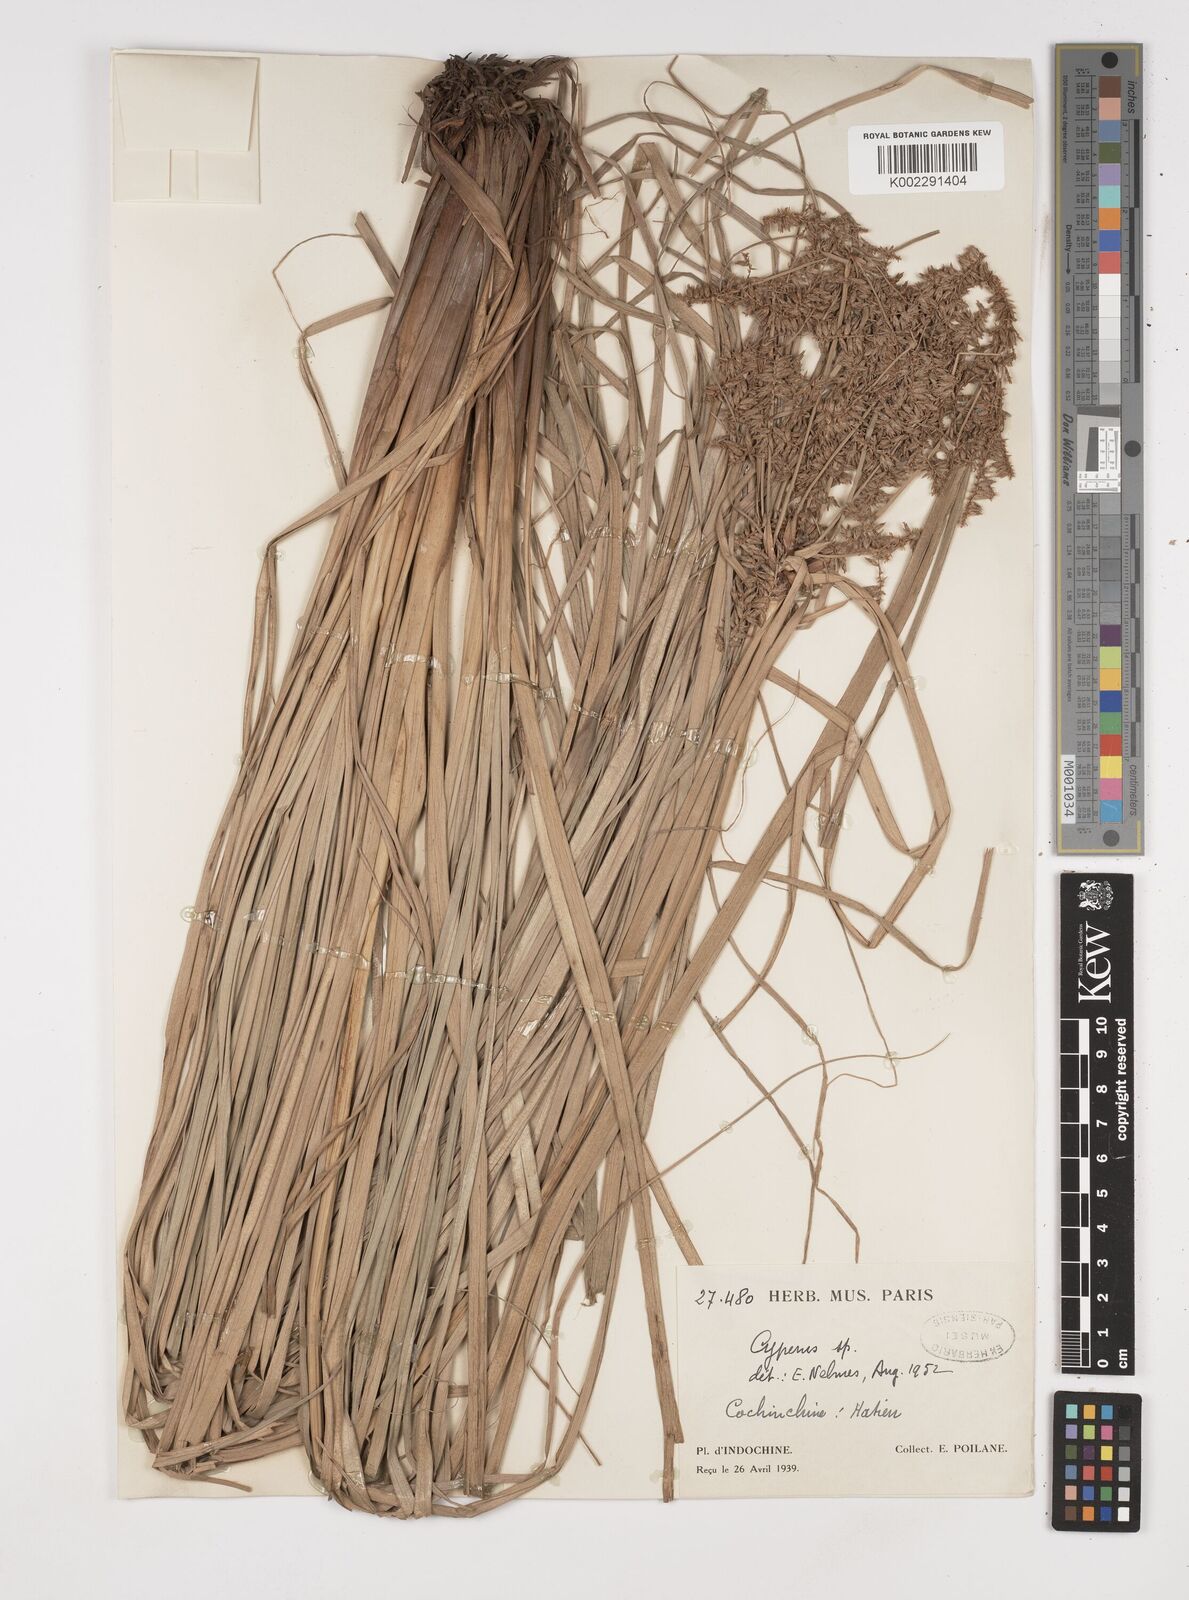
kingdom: Plantae
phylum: Tracheophyta
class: Liliopsida
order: Poales
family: Cyperaceae
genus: Cyperus
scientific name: Cyperus javanicus
